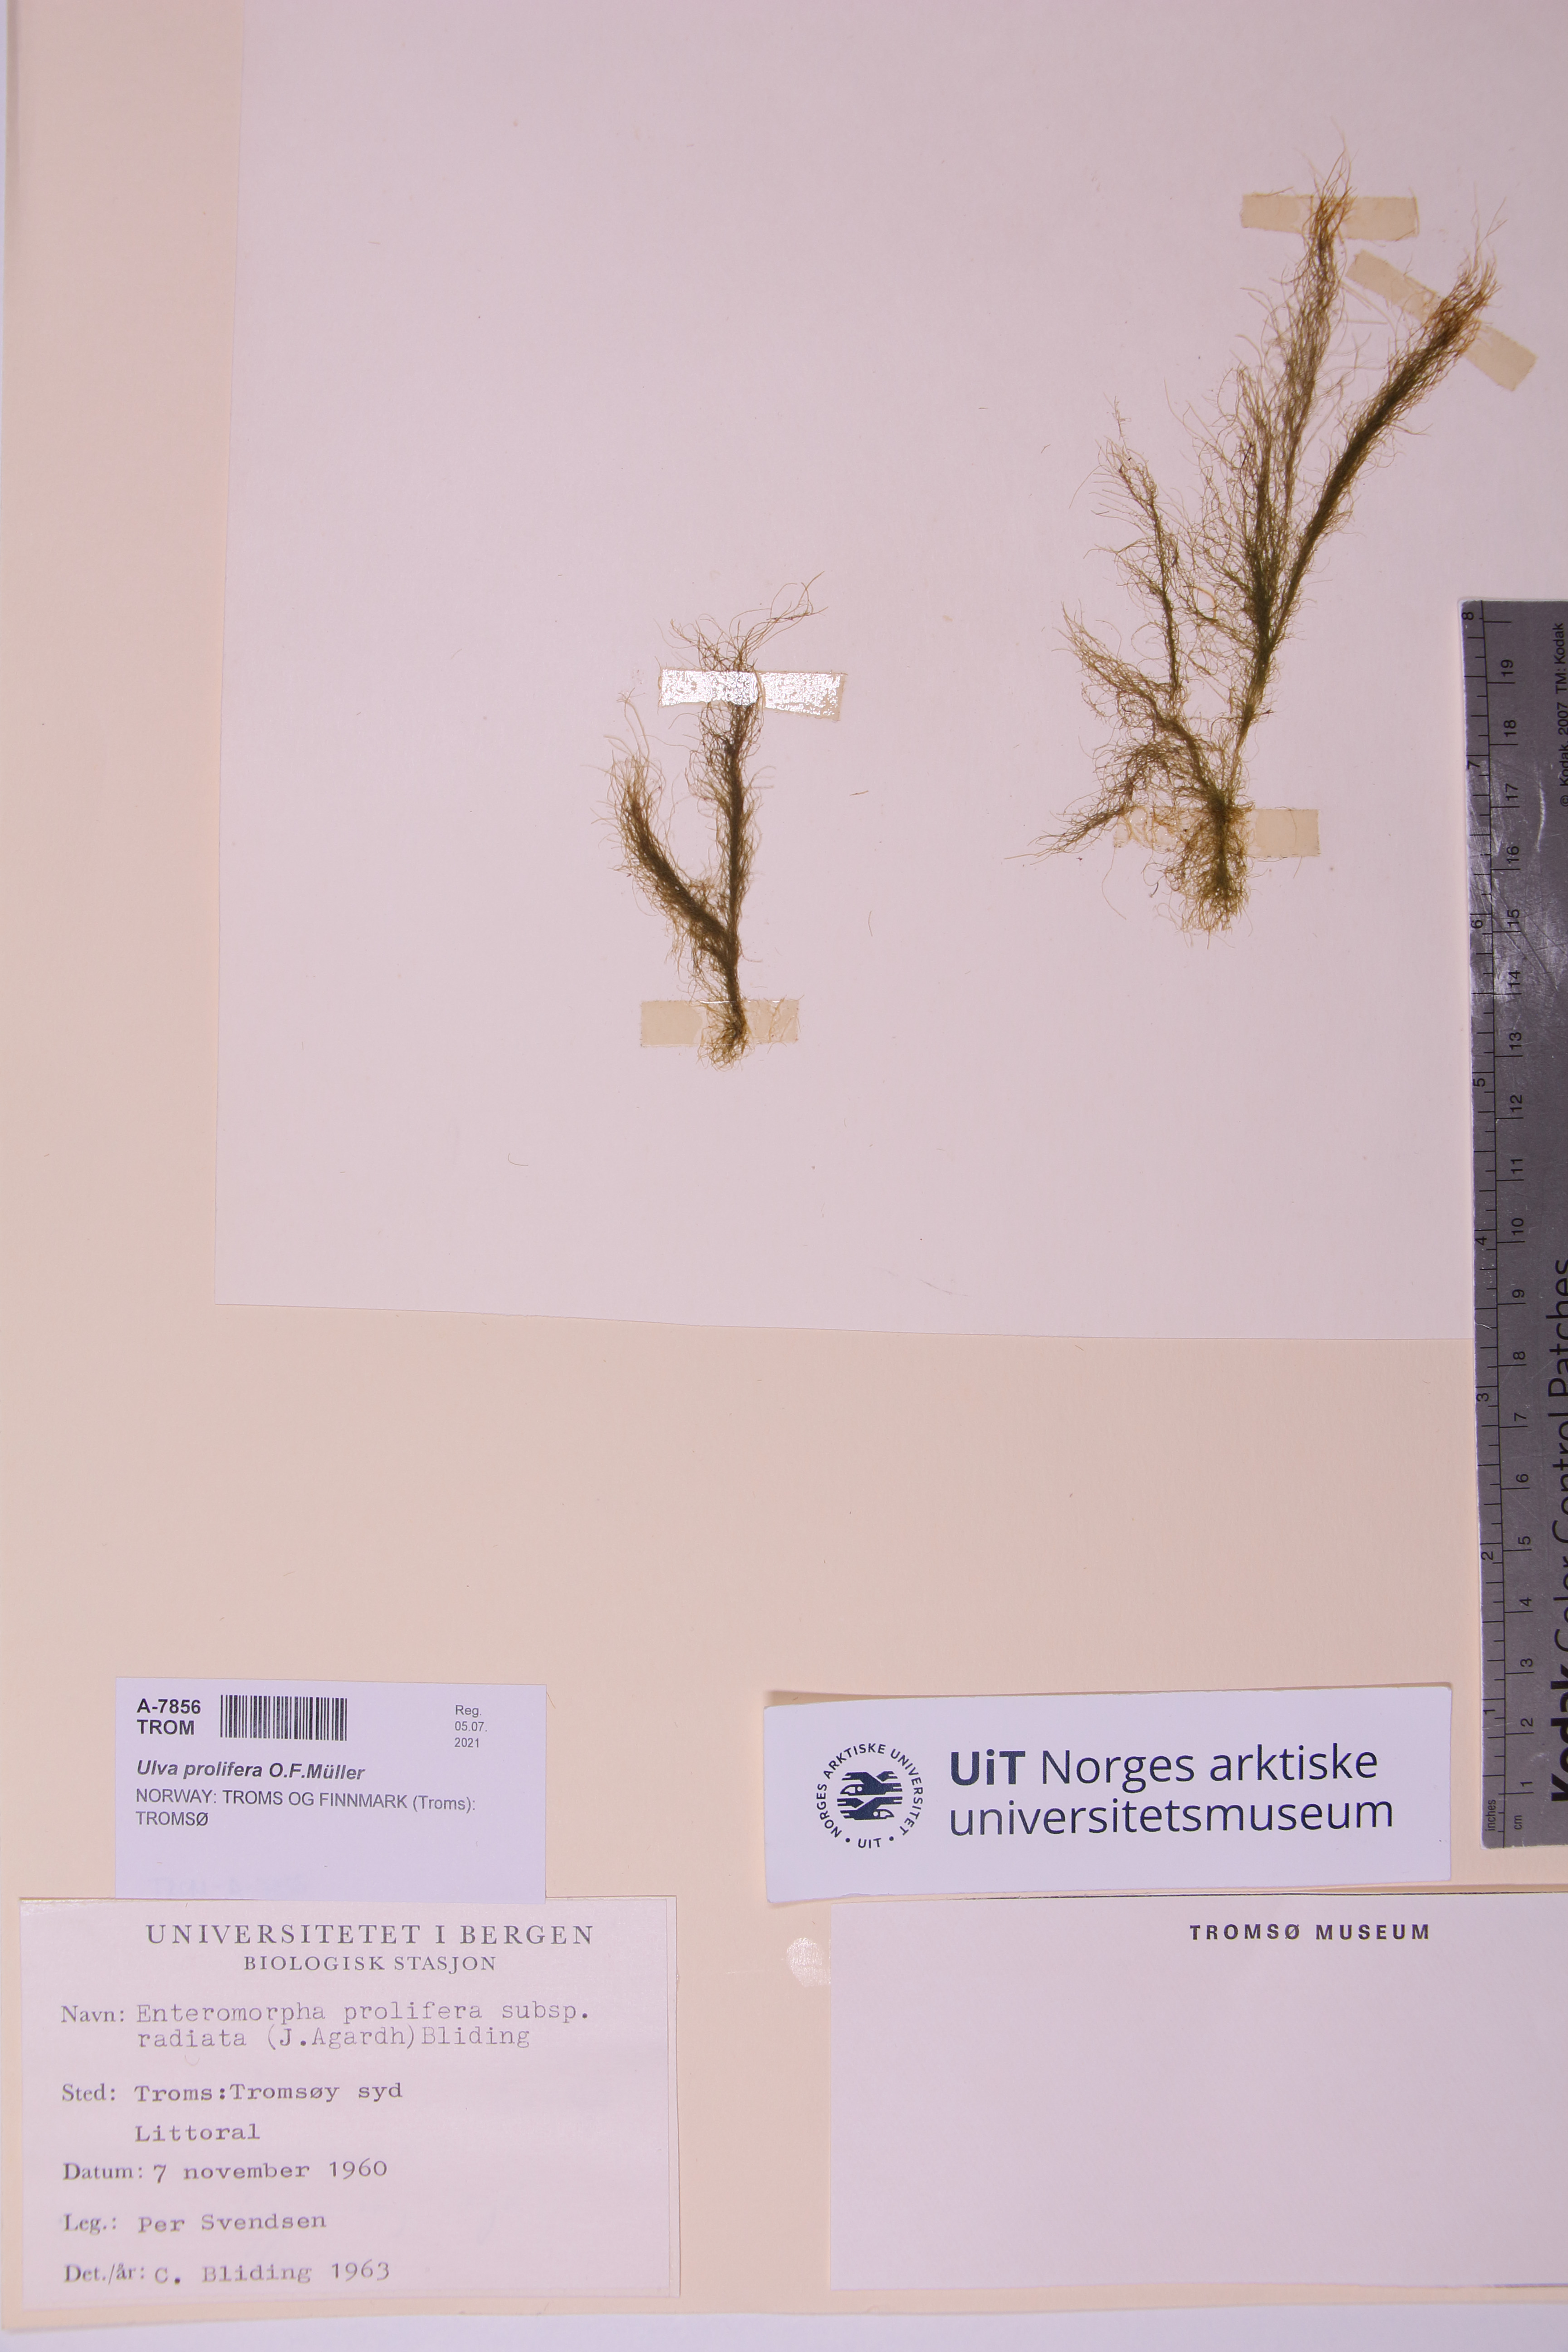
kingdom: Plantae
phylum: Chlorophyta
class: Ulvophyceae
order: Ulvales
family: Ulvaceae
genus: Ulva
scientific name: Ulva prolifera
